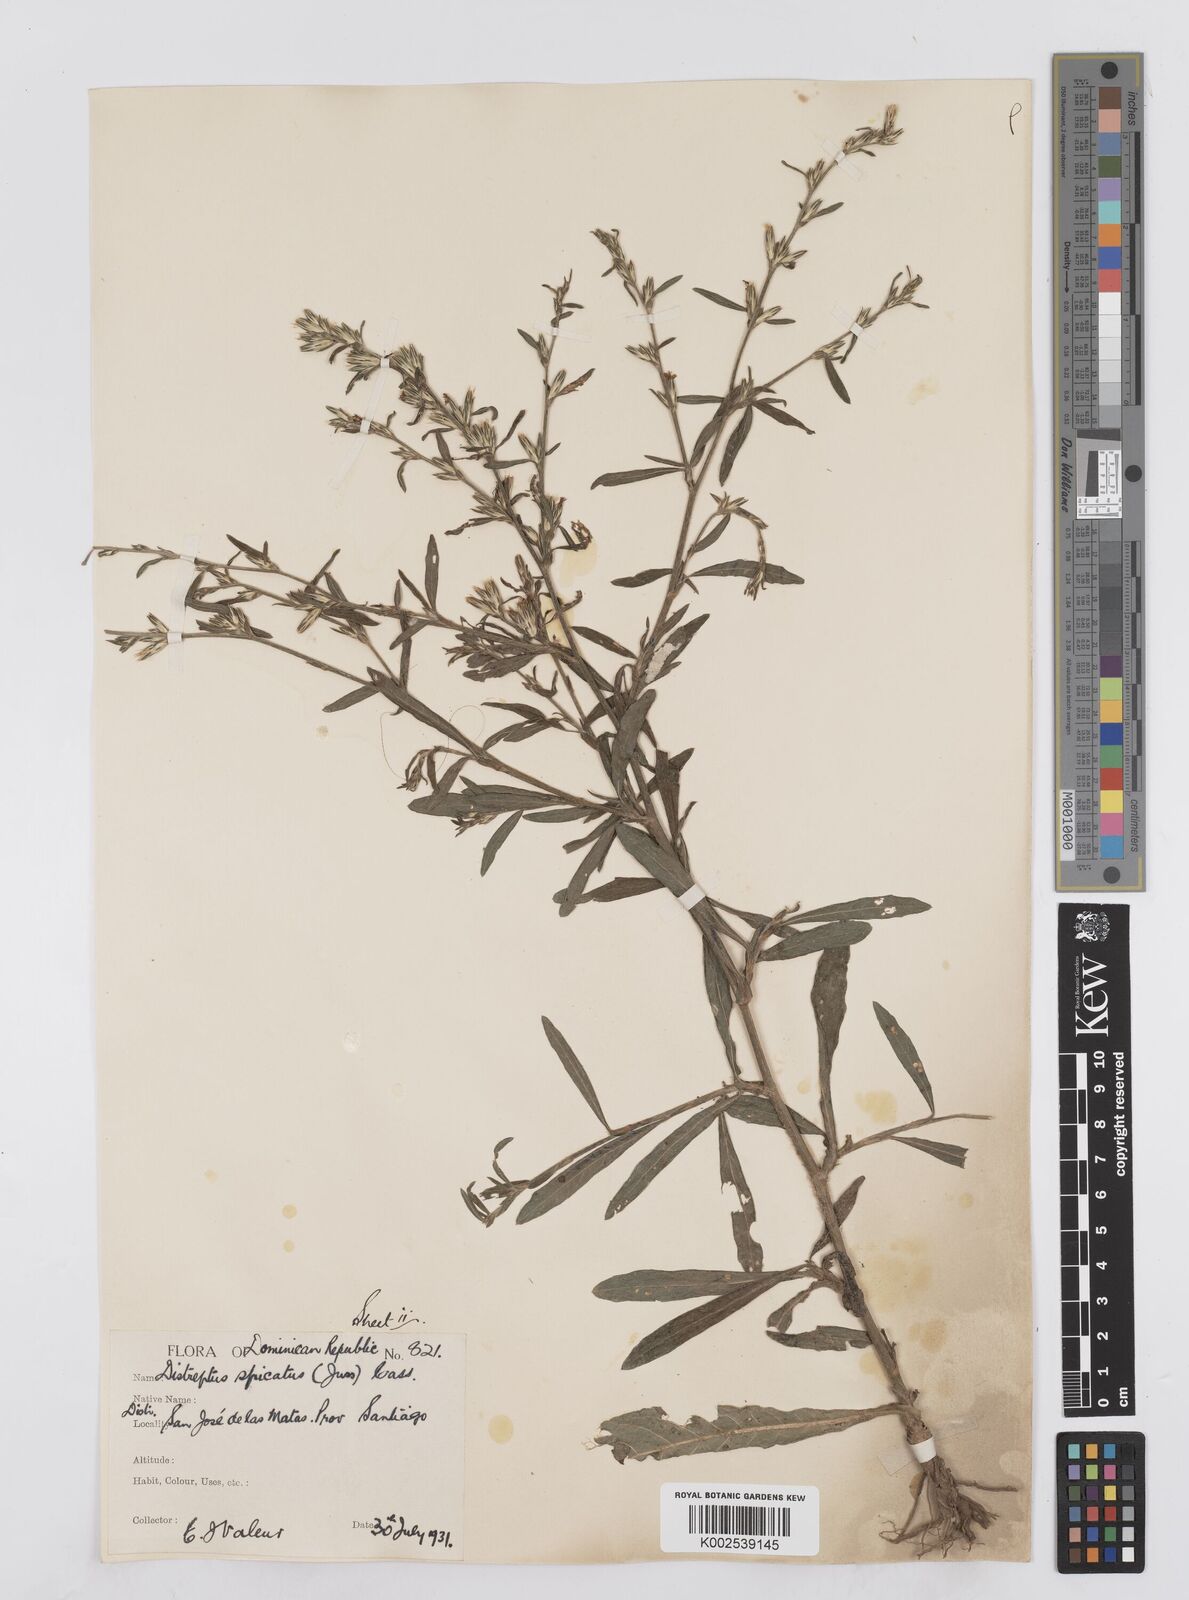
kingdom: Plantae
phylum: Tracheophyta
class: Magnoliopsida
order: Asterales
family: Asteraceae
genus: Pseudelephantopus
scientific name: Pseudelephantopus spicatus
